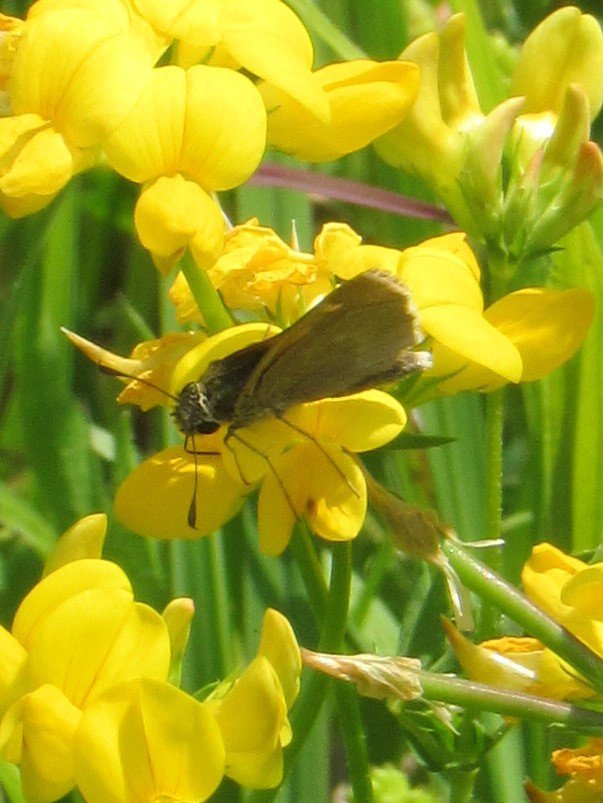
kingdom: Animalia
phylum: Arthropoda
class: Insecta
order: Lepidoptera
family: Hesperiidae
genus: Polites
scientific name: Polites egeremet
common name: Northern Broken-Dash
